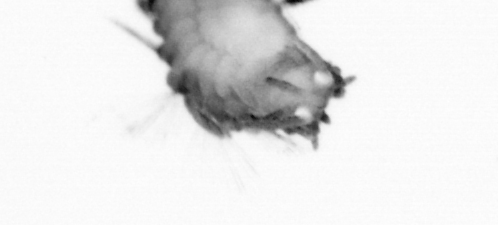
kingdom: Animalia
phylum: Annelida
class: Polychaeta
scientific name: Polychaeta
